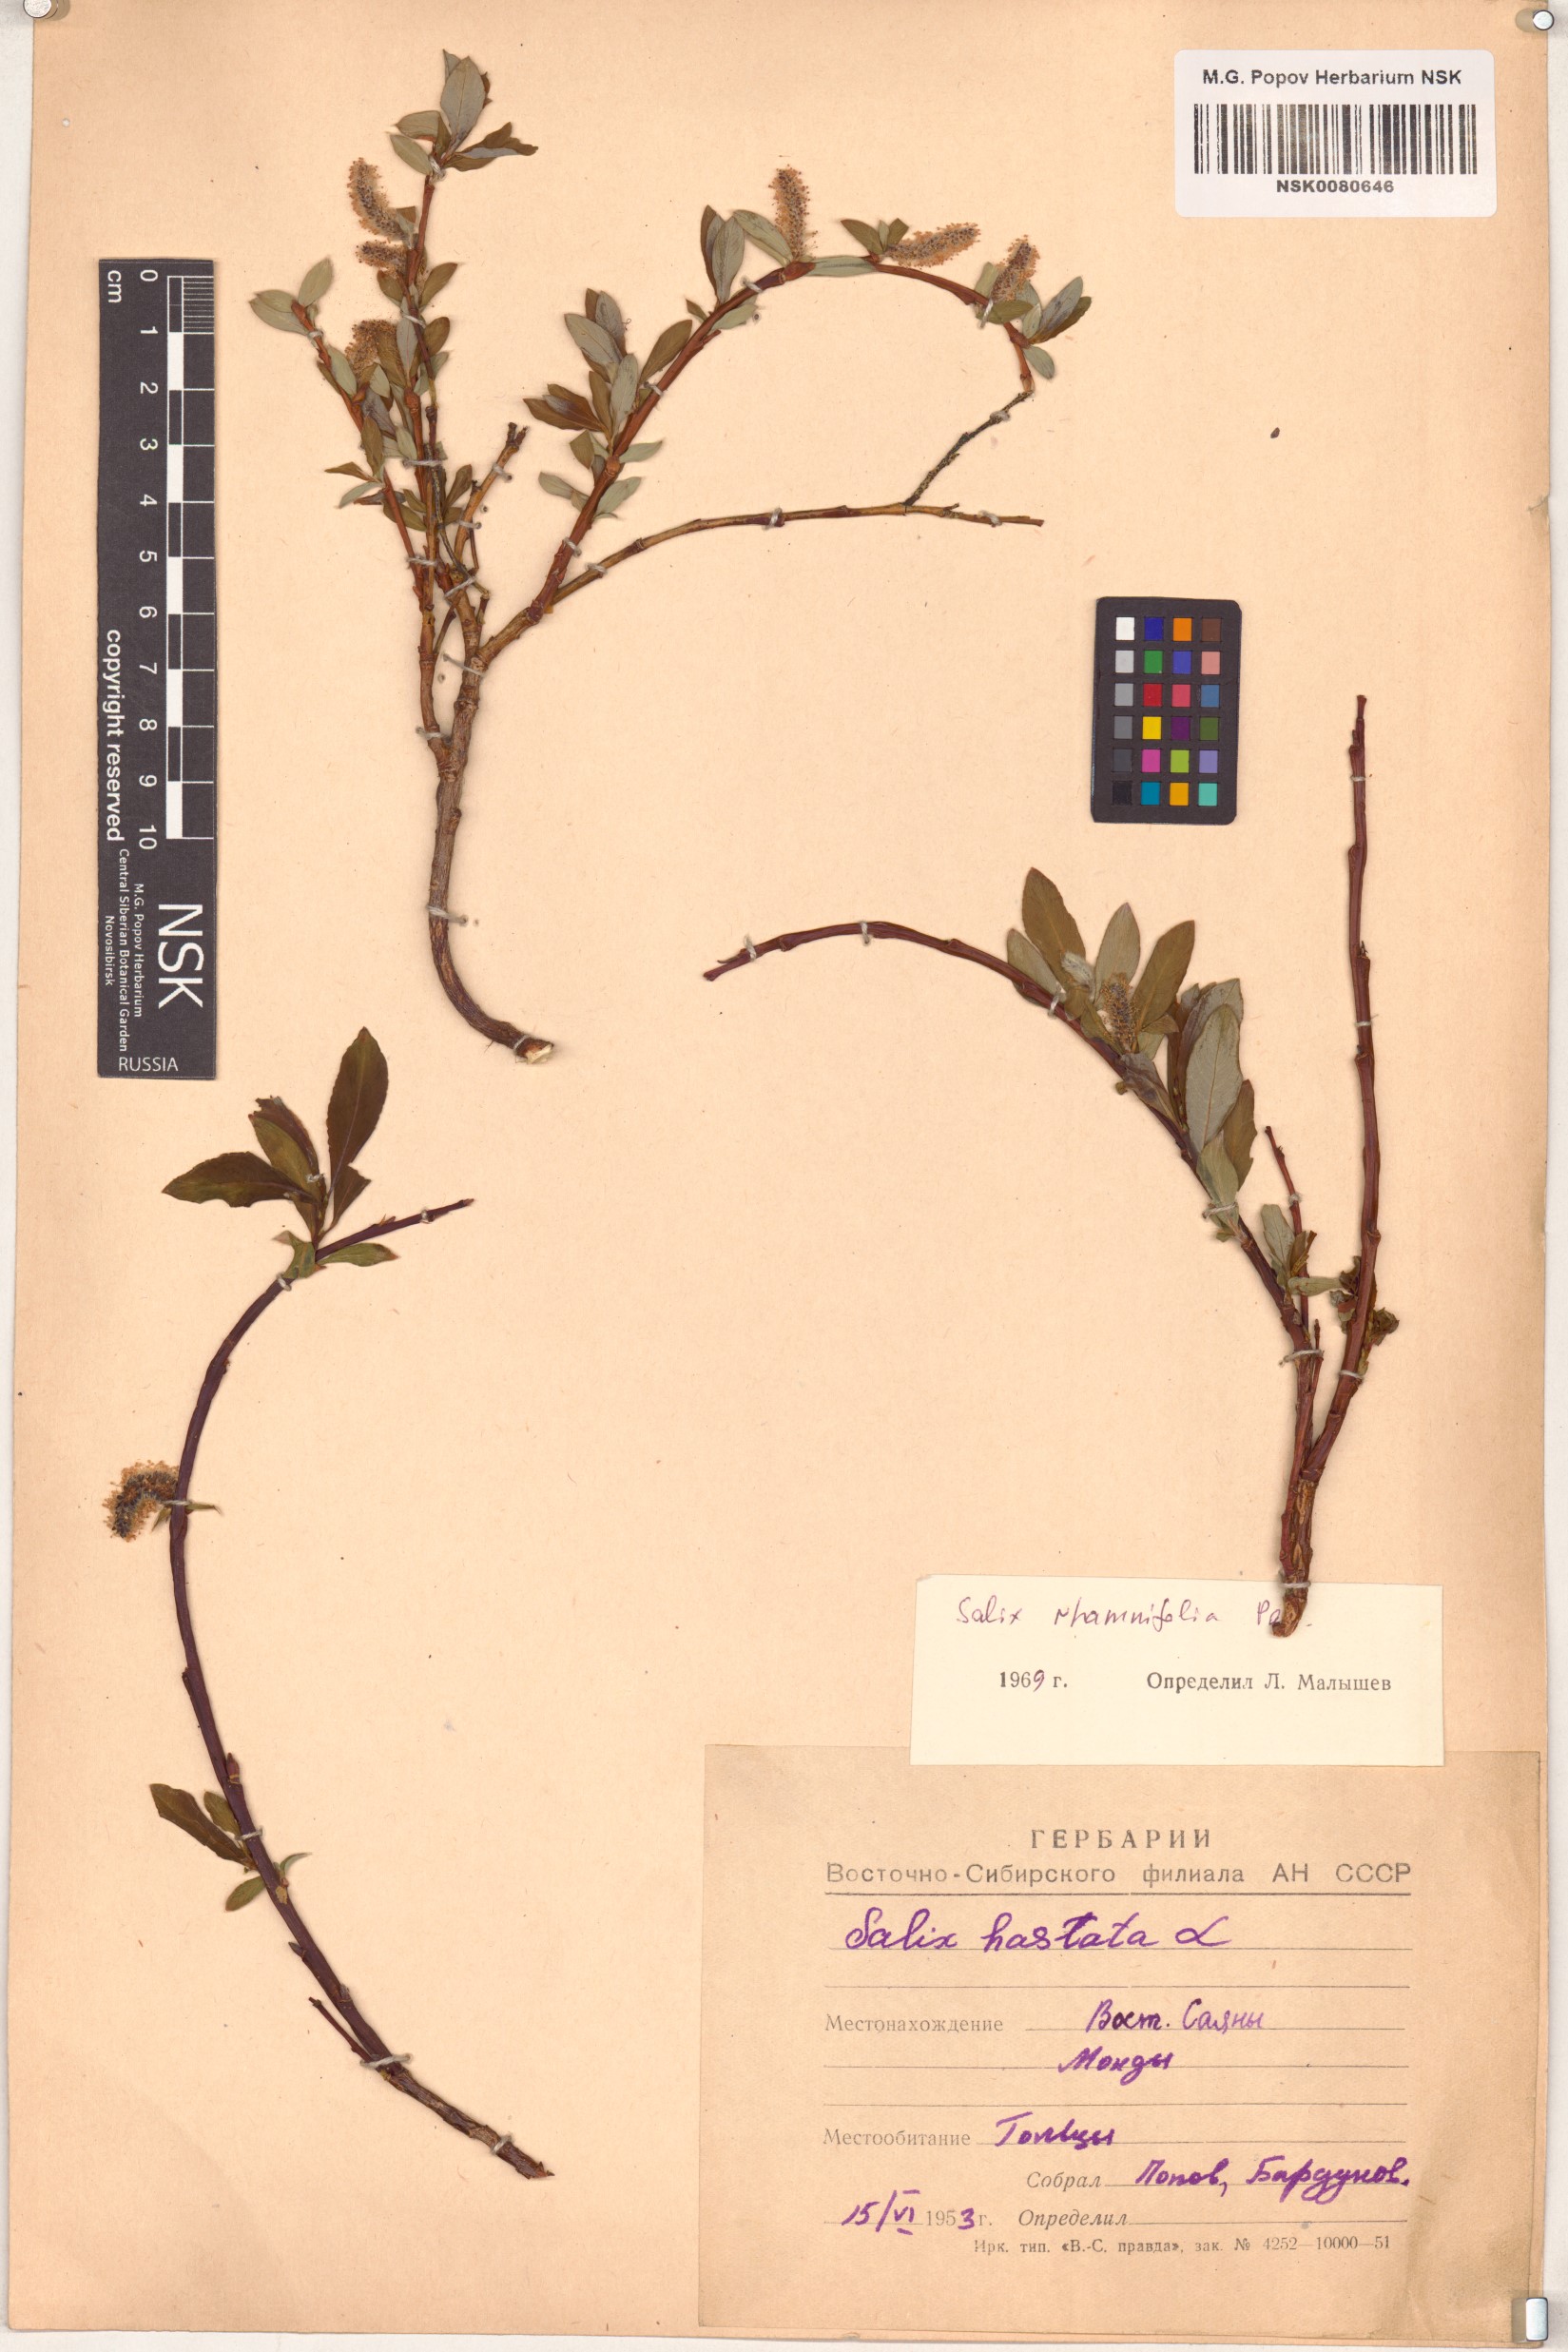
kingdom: Plantae
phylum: Tracheophyta
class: Magnoliopsida
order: Malpighiales
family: Salicaceae
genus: Salix
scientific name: Salix rhamnifolia
